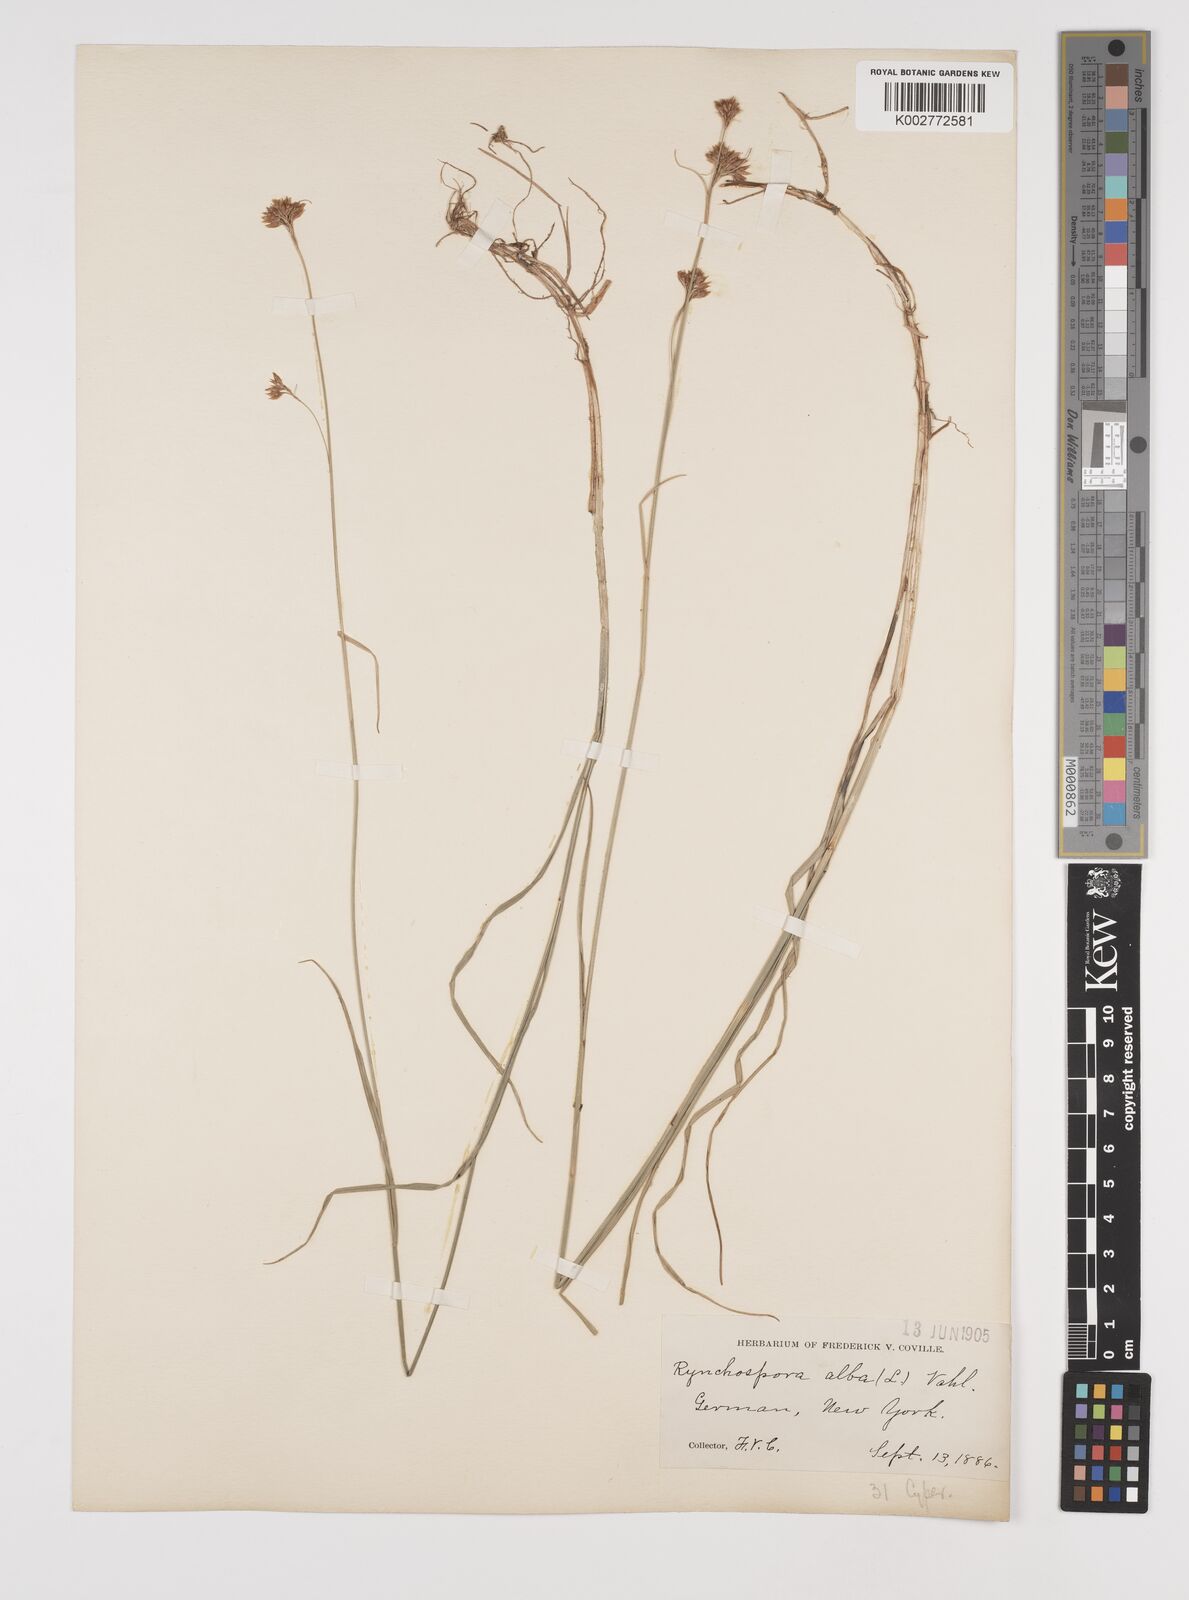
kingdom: Plantae
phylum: Tracheophyta
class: Liliopsida
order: Poales
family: Cyperaceae
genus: Rhynchospora
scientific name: Rhynchospora alba
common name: White beak-sedge
